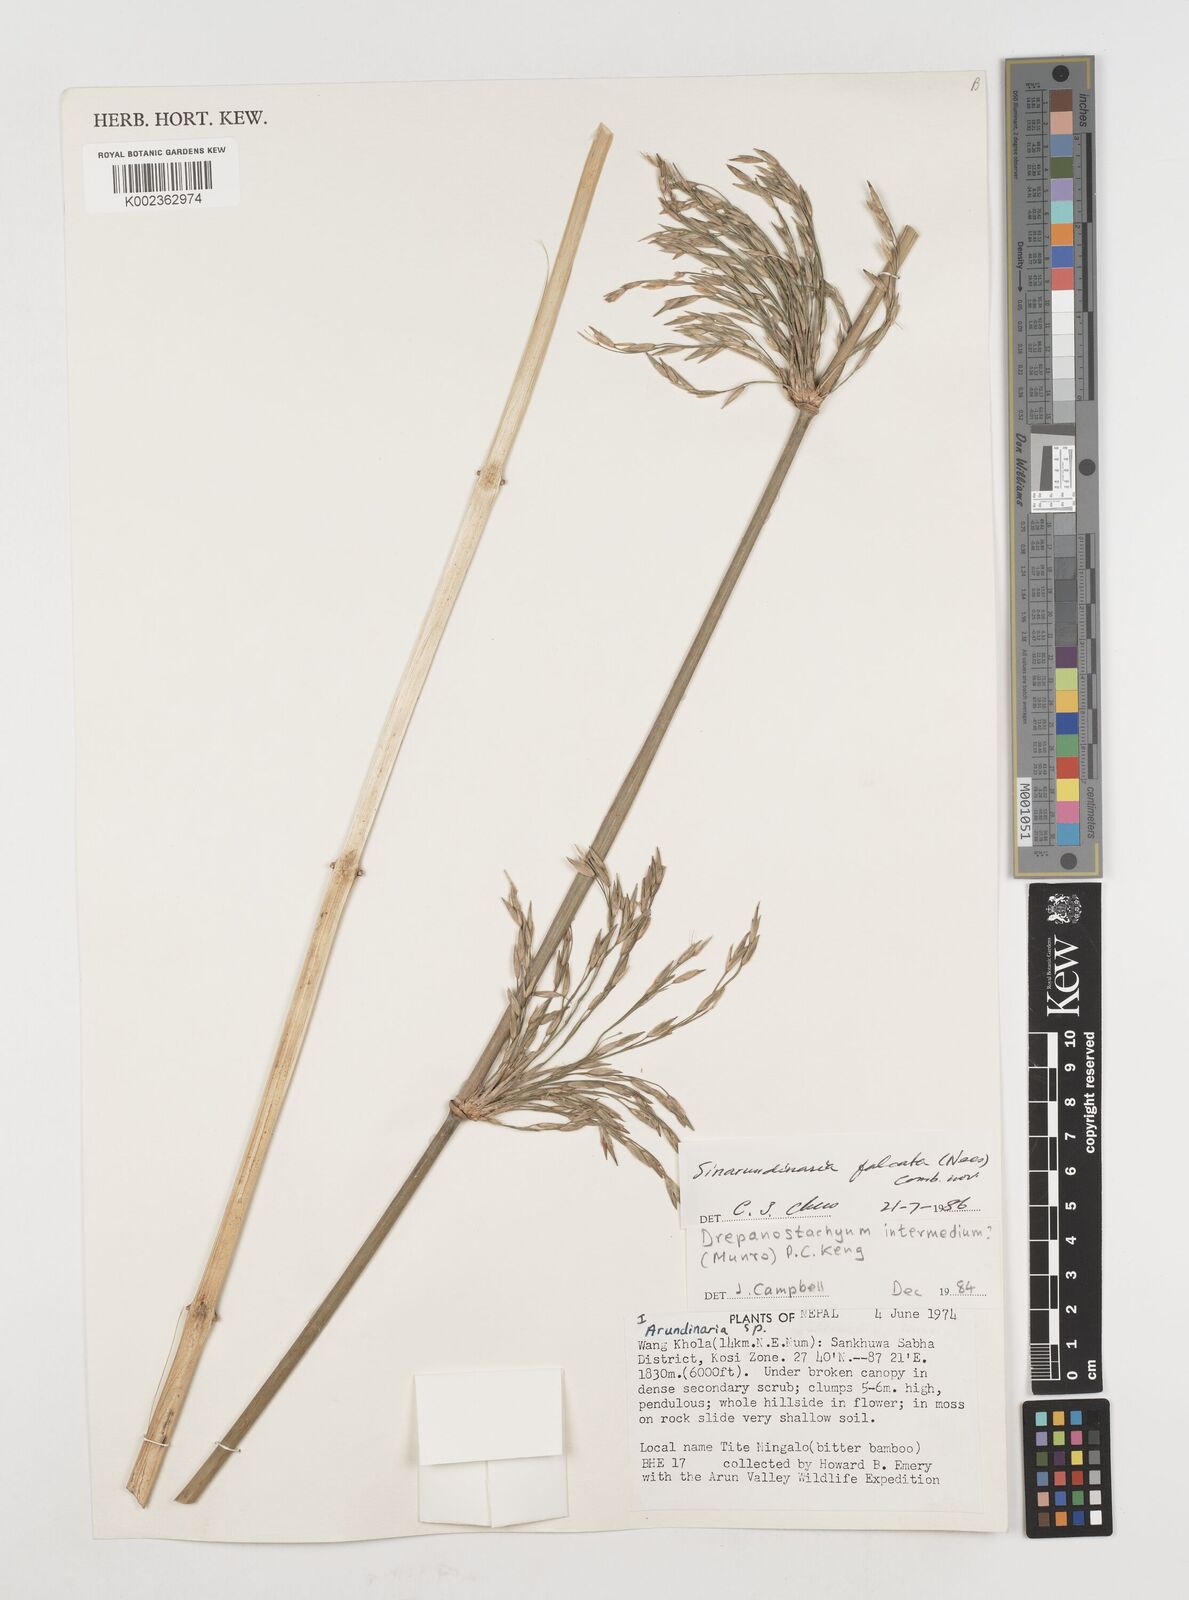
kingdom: Plantae
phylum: Tracheophyta
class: Liliopsida
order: Poales
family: Poaceae
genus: Drepanostachyum
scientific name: Drepanostachyum intermedium
